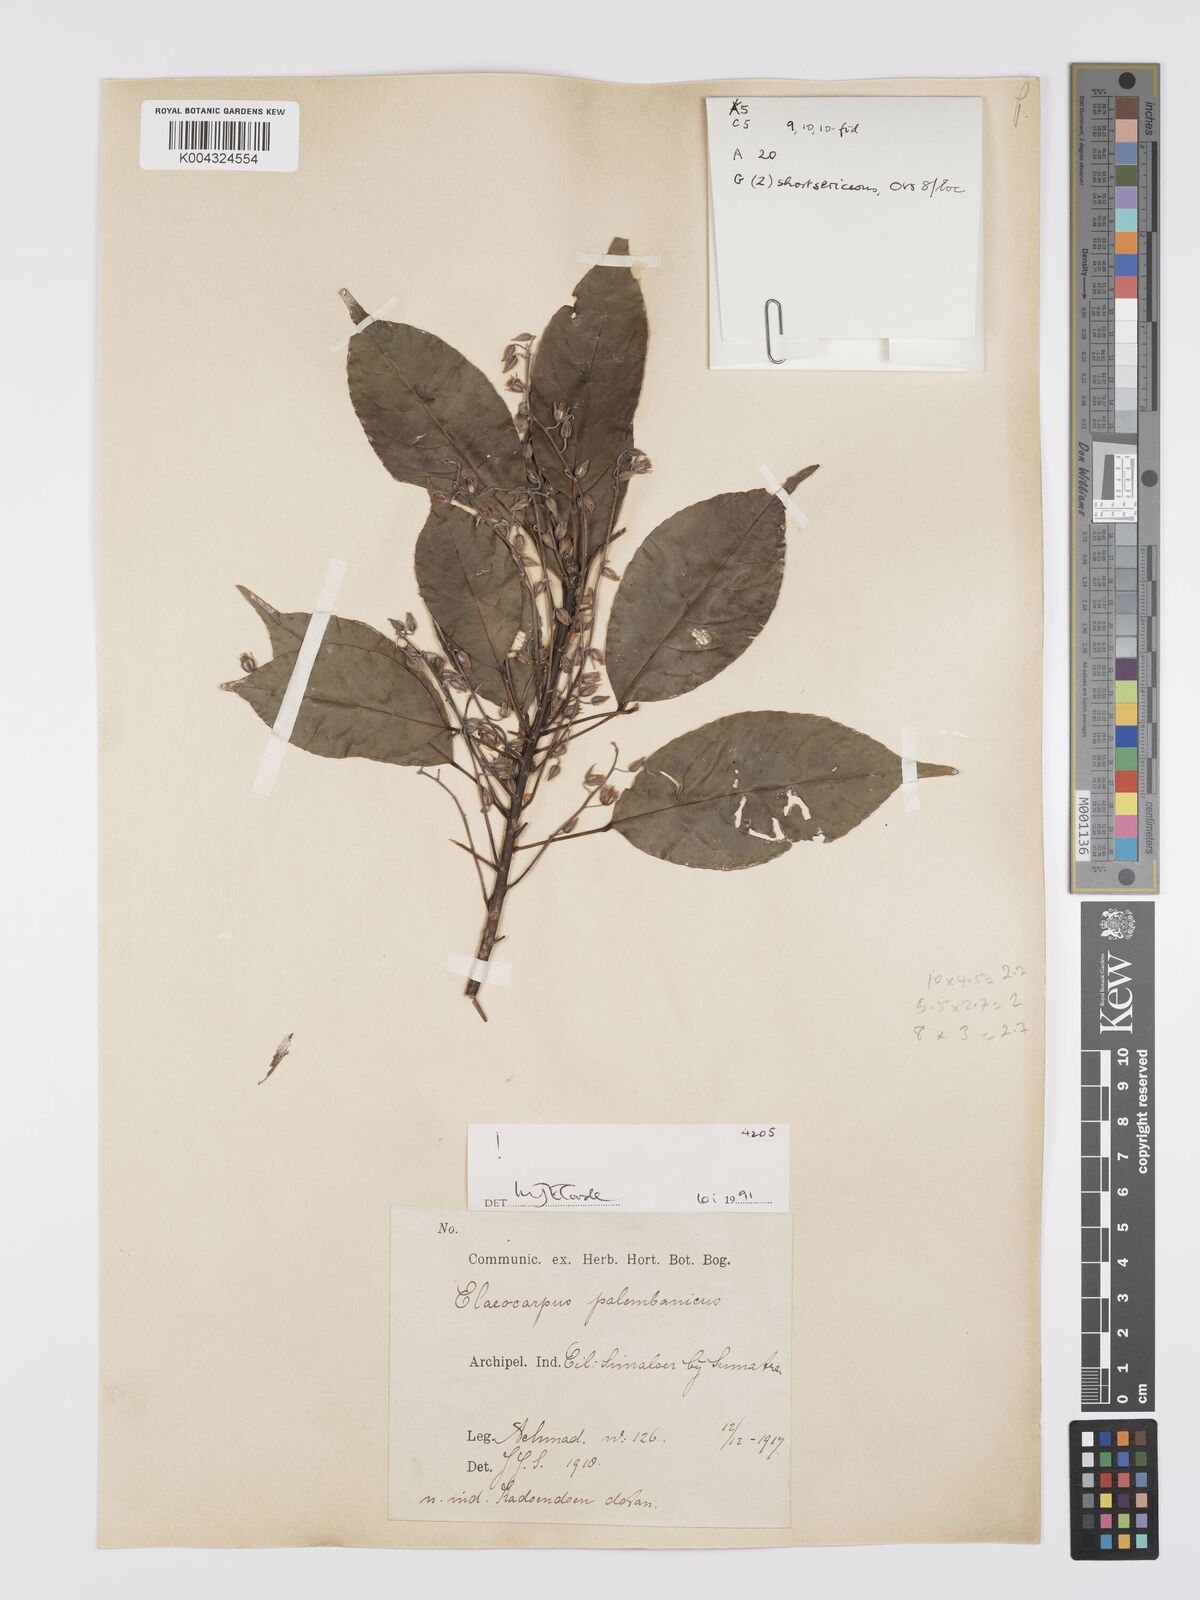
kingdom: Plantae
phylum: Tracheophyta
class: Magnoliopsida
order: Oxalidales
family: Elaeocarpaceae
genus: Elaeocarpus
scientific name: Elaeocarpus palembanicus
